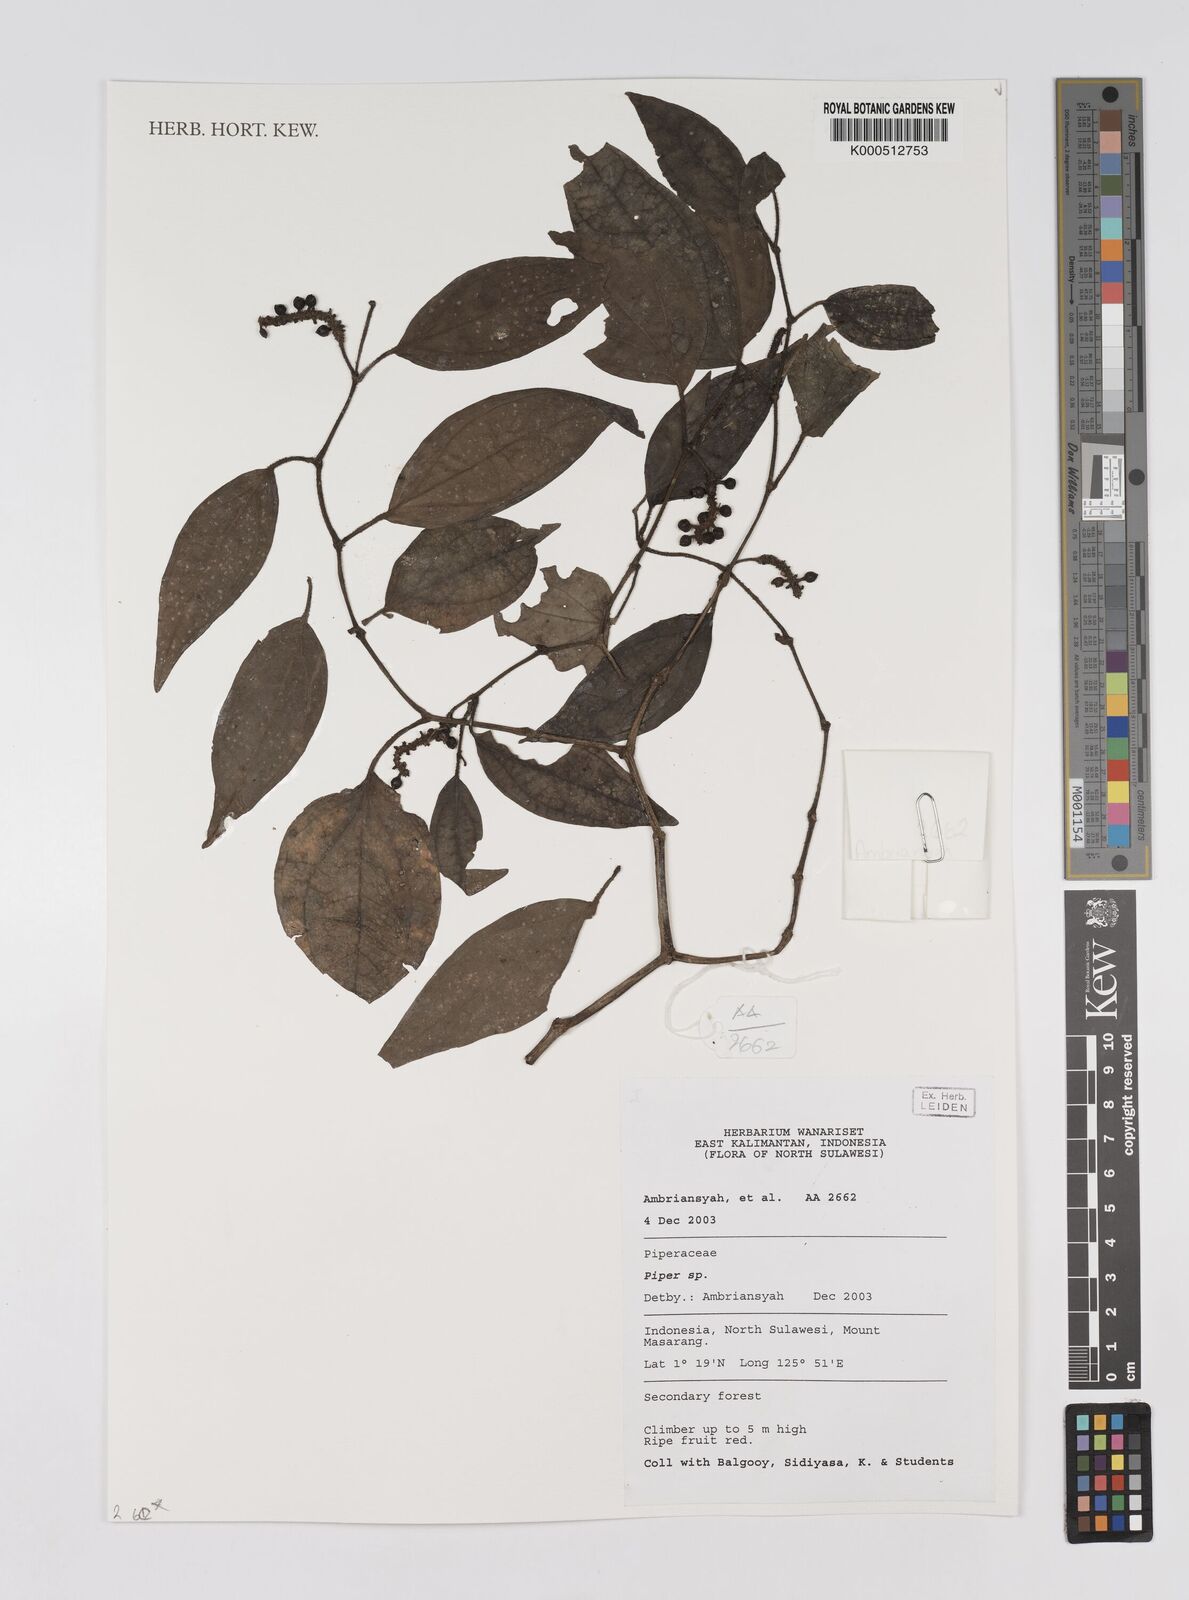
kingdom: Plantae
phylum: Tracheophyta
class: Magnoliopsida
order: Piperales
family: Piperaceae
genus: Piper
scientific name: Piper
